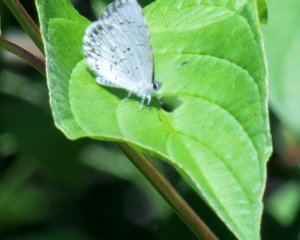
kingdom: Animalia
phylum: Arthropoda
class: Insecta
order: Lepidoptera
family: Lycaenidae
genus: Cyaniris
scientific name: Cyaniris neglecta
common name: Summer Azure
